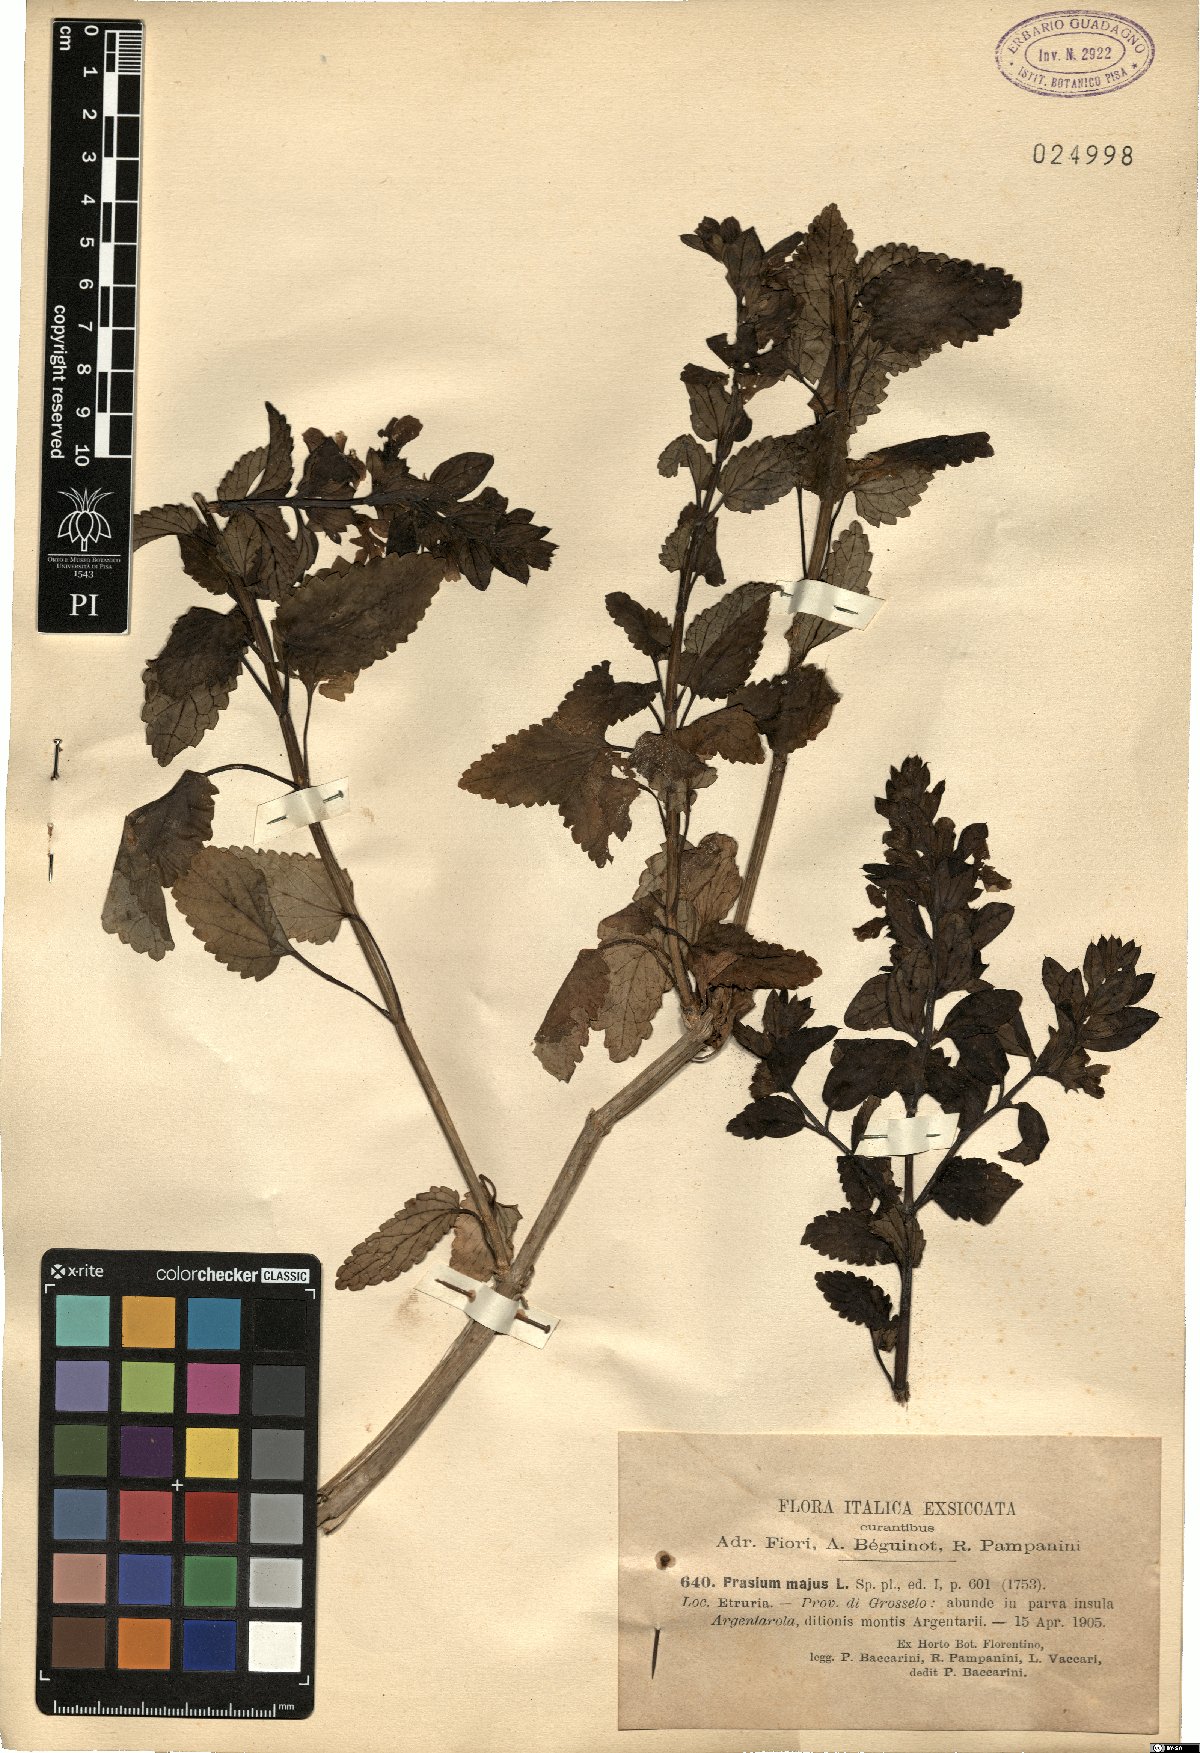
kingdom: Plantae
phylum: Tracheophyta
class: Magnoliopsida
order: Lamiales
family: Lamiaceae
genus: Prasium
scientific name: Prasium majus
